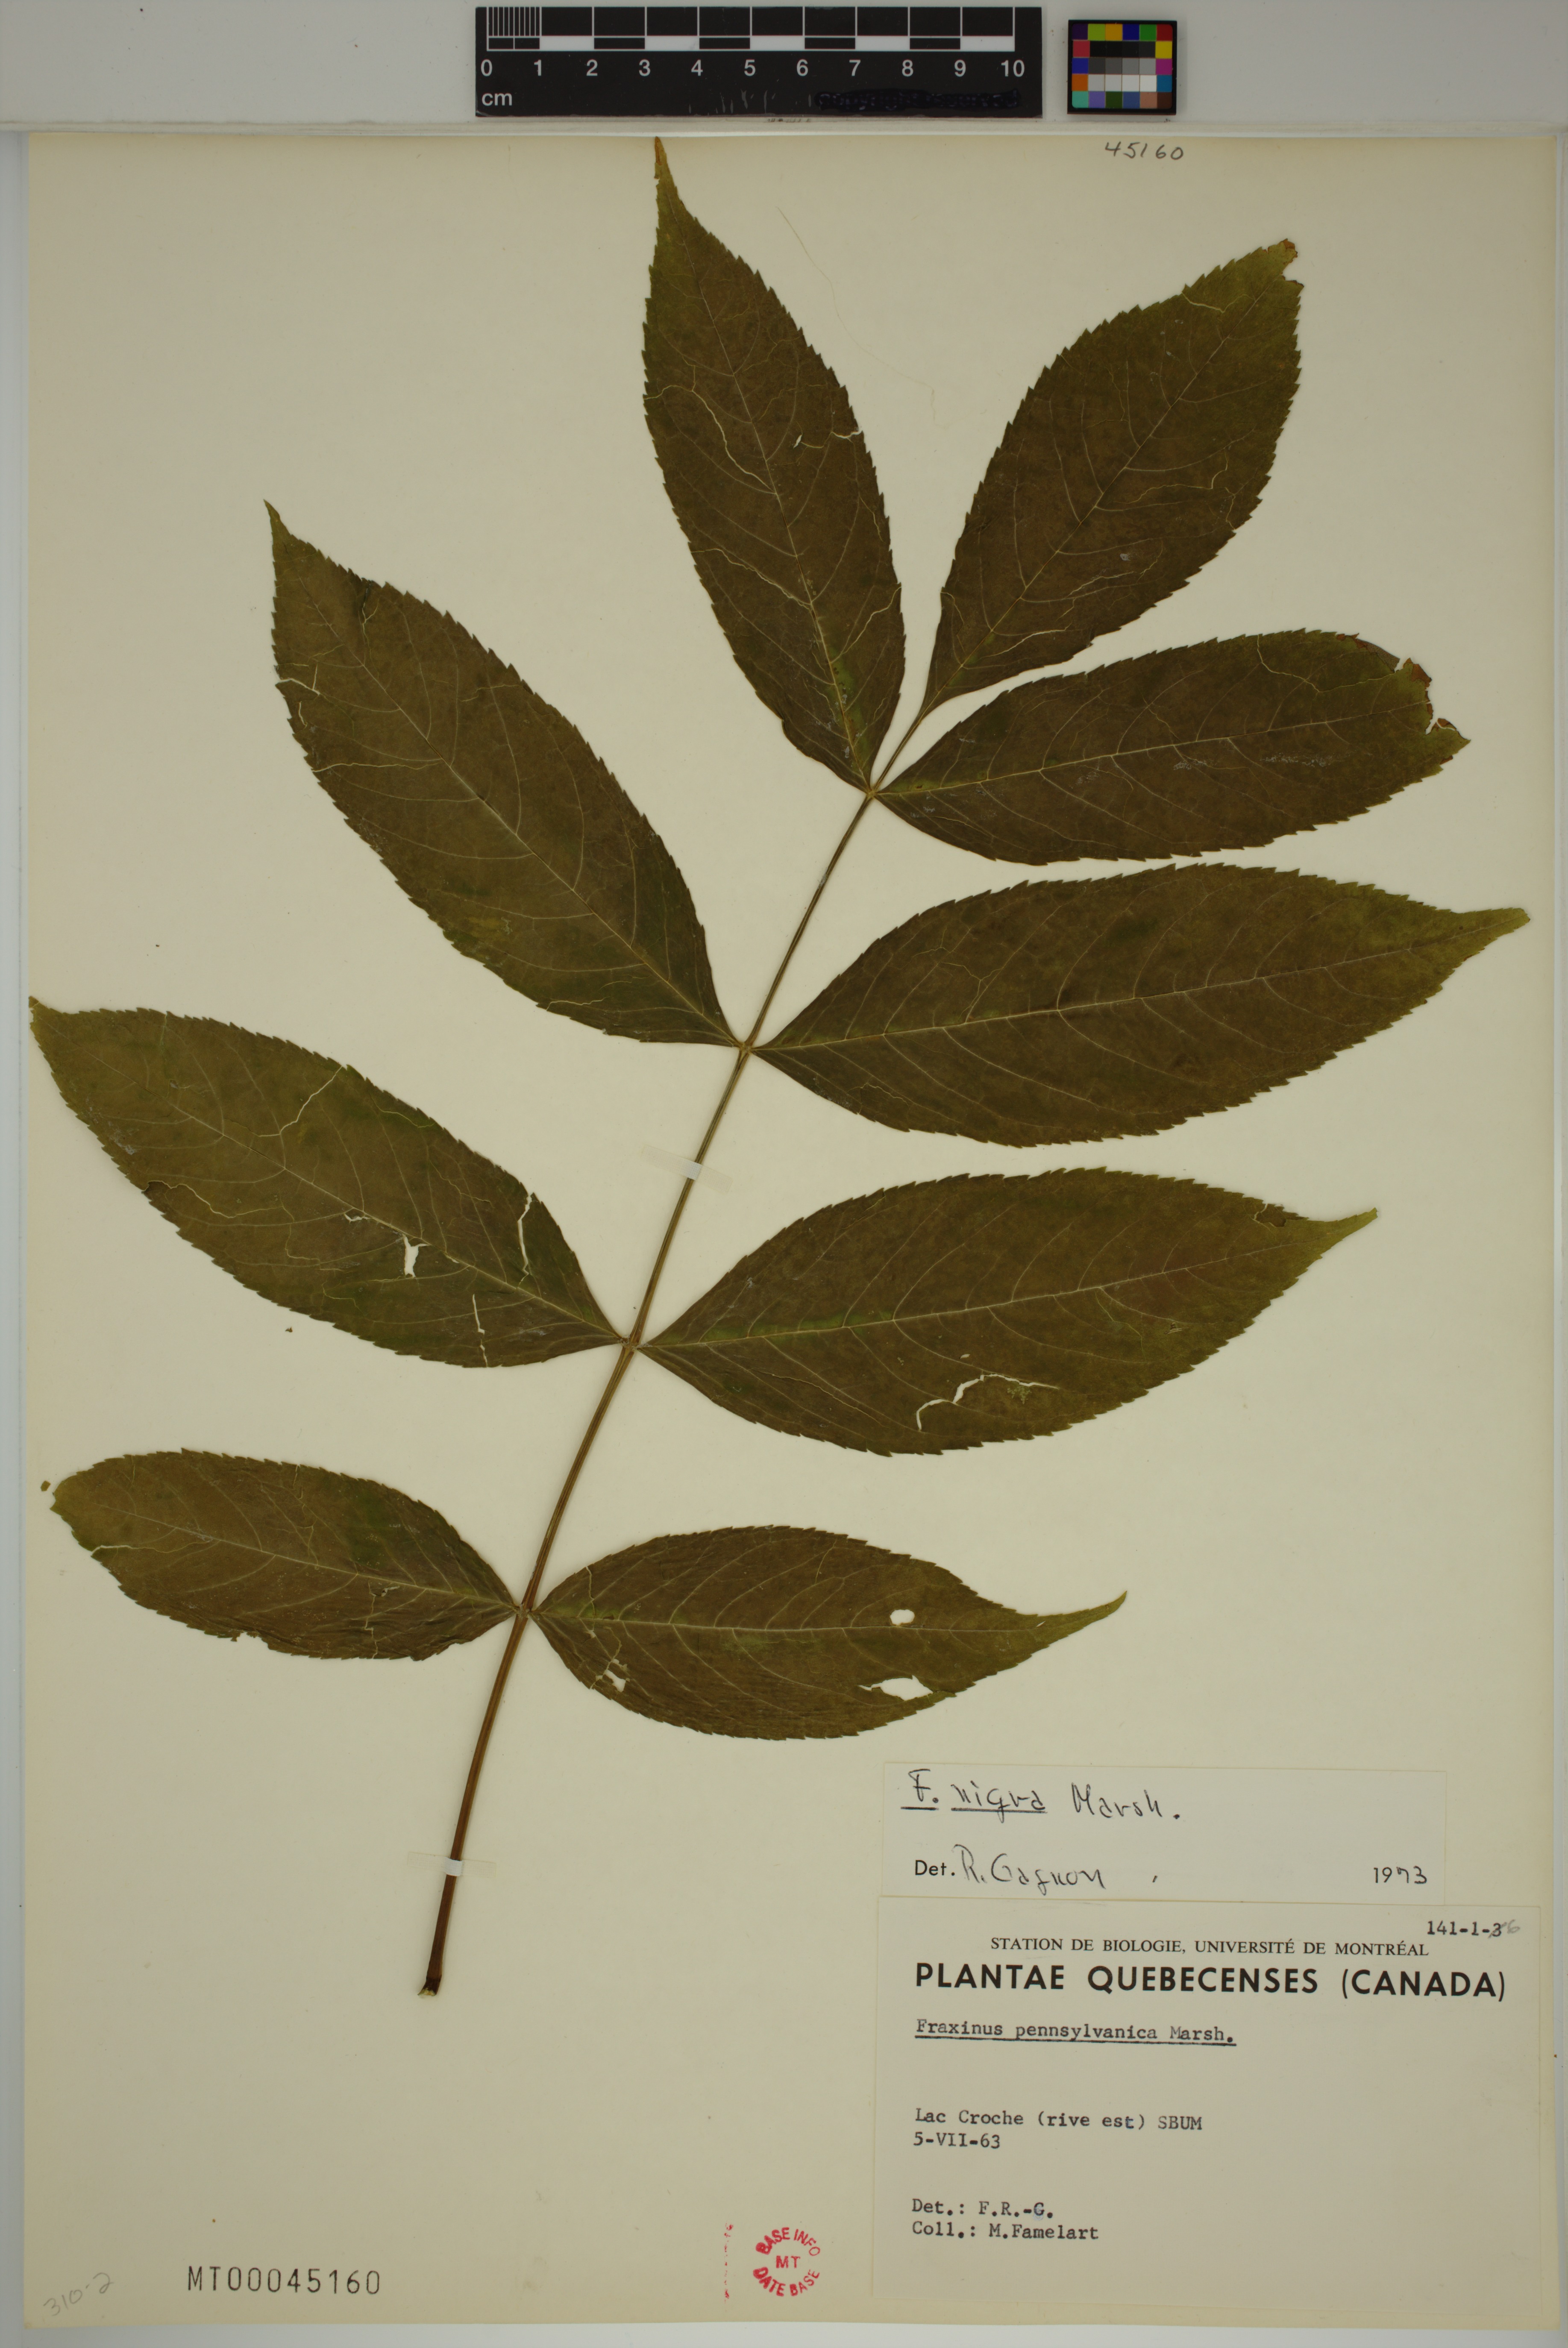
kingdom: Plantae
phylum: Tracheophyta
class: Magnoliopsida
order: Lamiales
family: Oleaceae
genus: Fraxinus
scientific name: Fraxinus nigra
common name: Black ash
